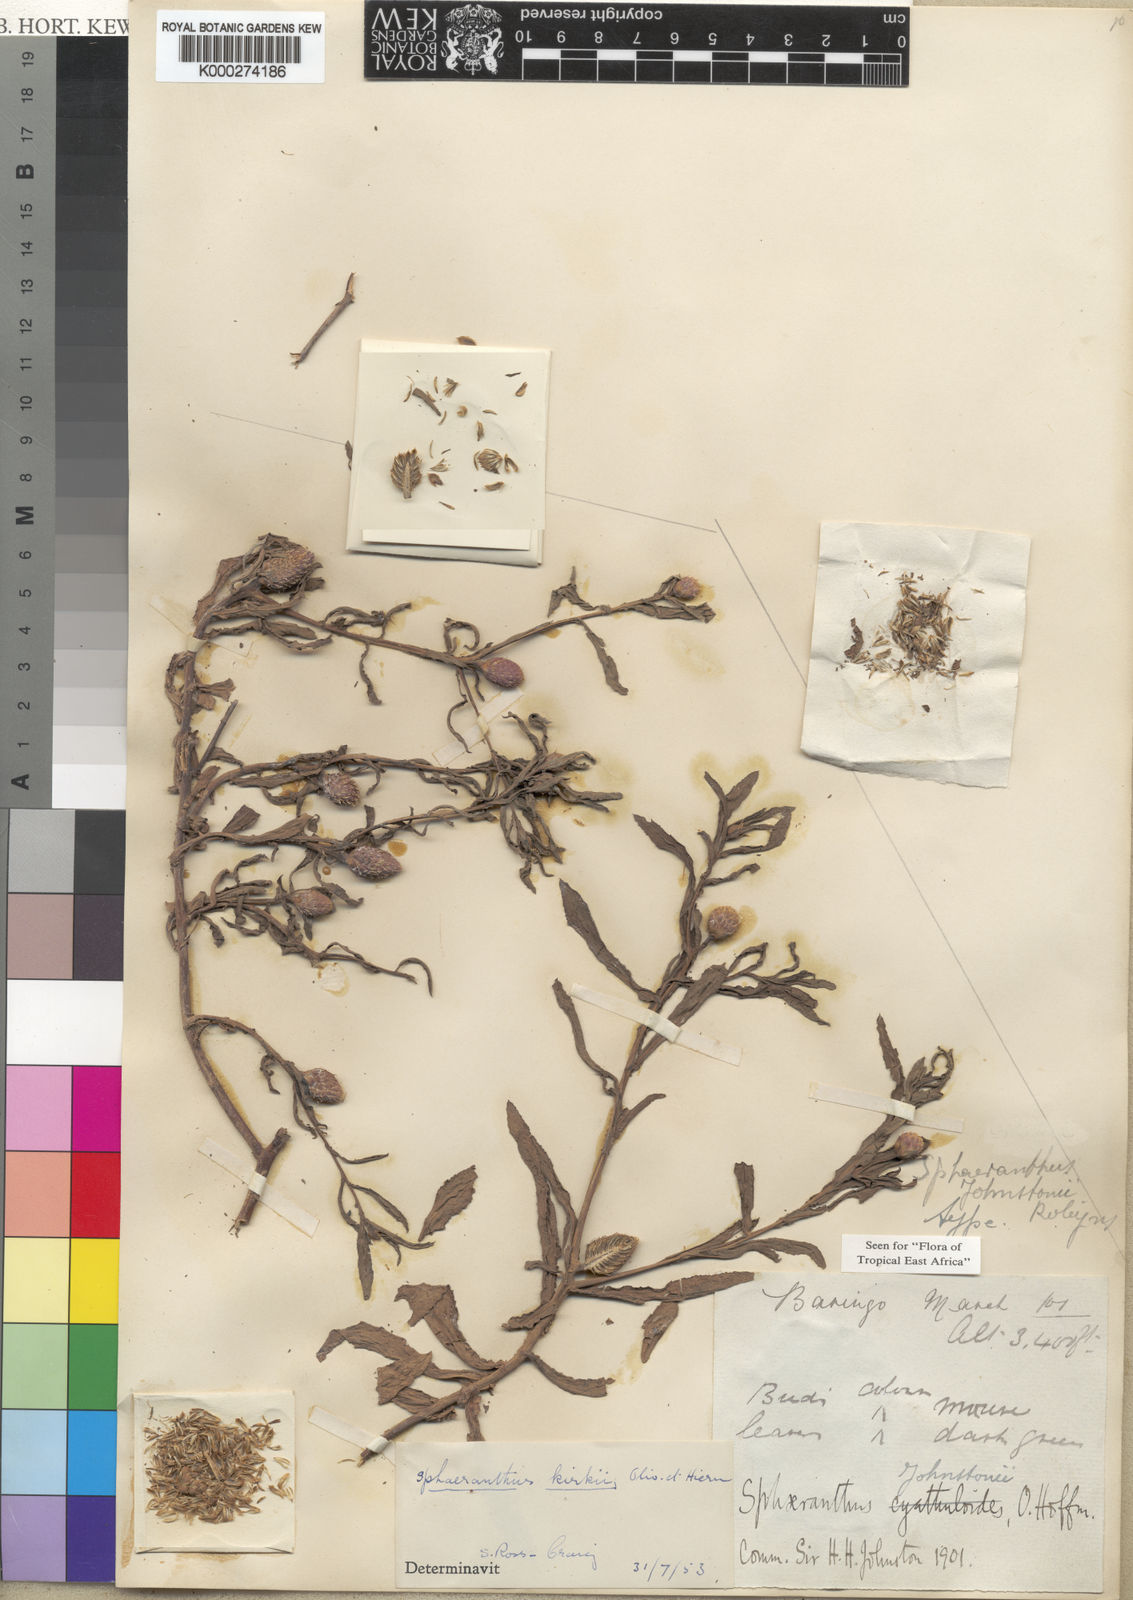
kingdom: Plantae
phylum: Tracheophyta
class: Magnoliopsida
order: Asterales
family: Asteraceae
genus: Sphaeranthus
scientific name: Sphaeranthus kirkii
